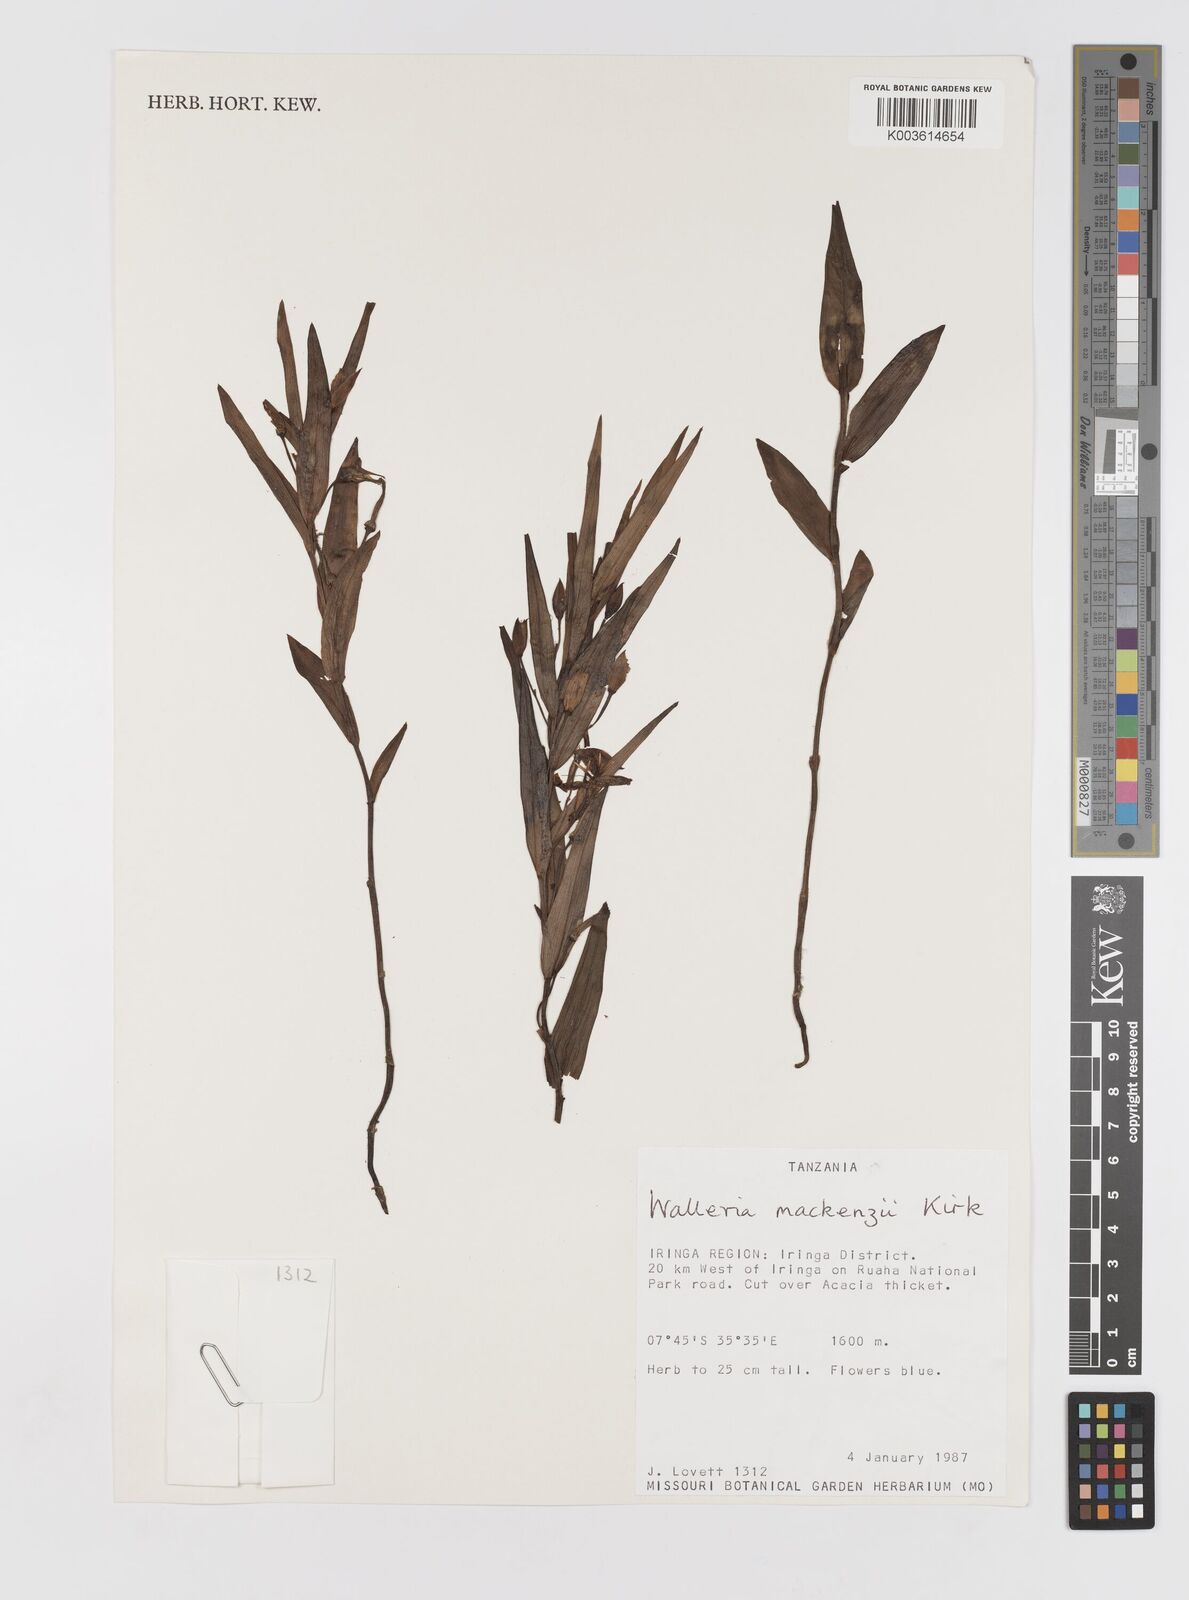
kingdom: Plantae
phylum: Tracheophyta
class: Liliopsida
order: Asparagales
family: Tecophilaeaceae
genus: Walleria
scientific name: Walleria mackenziei
